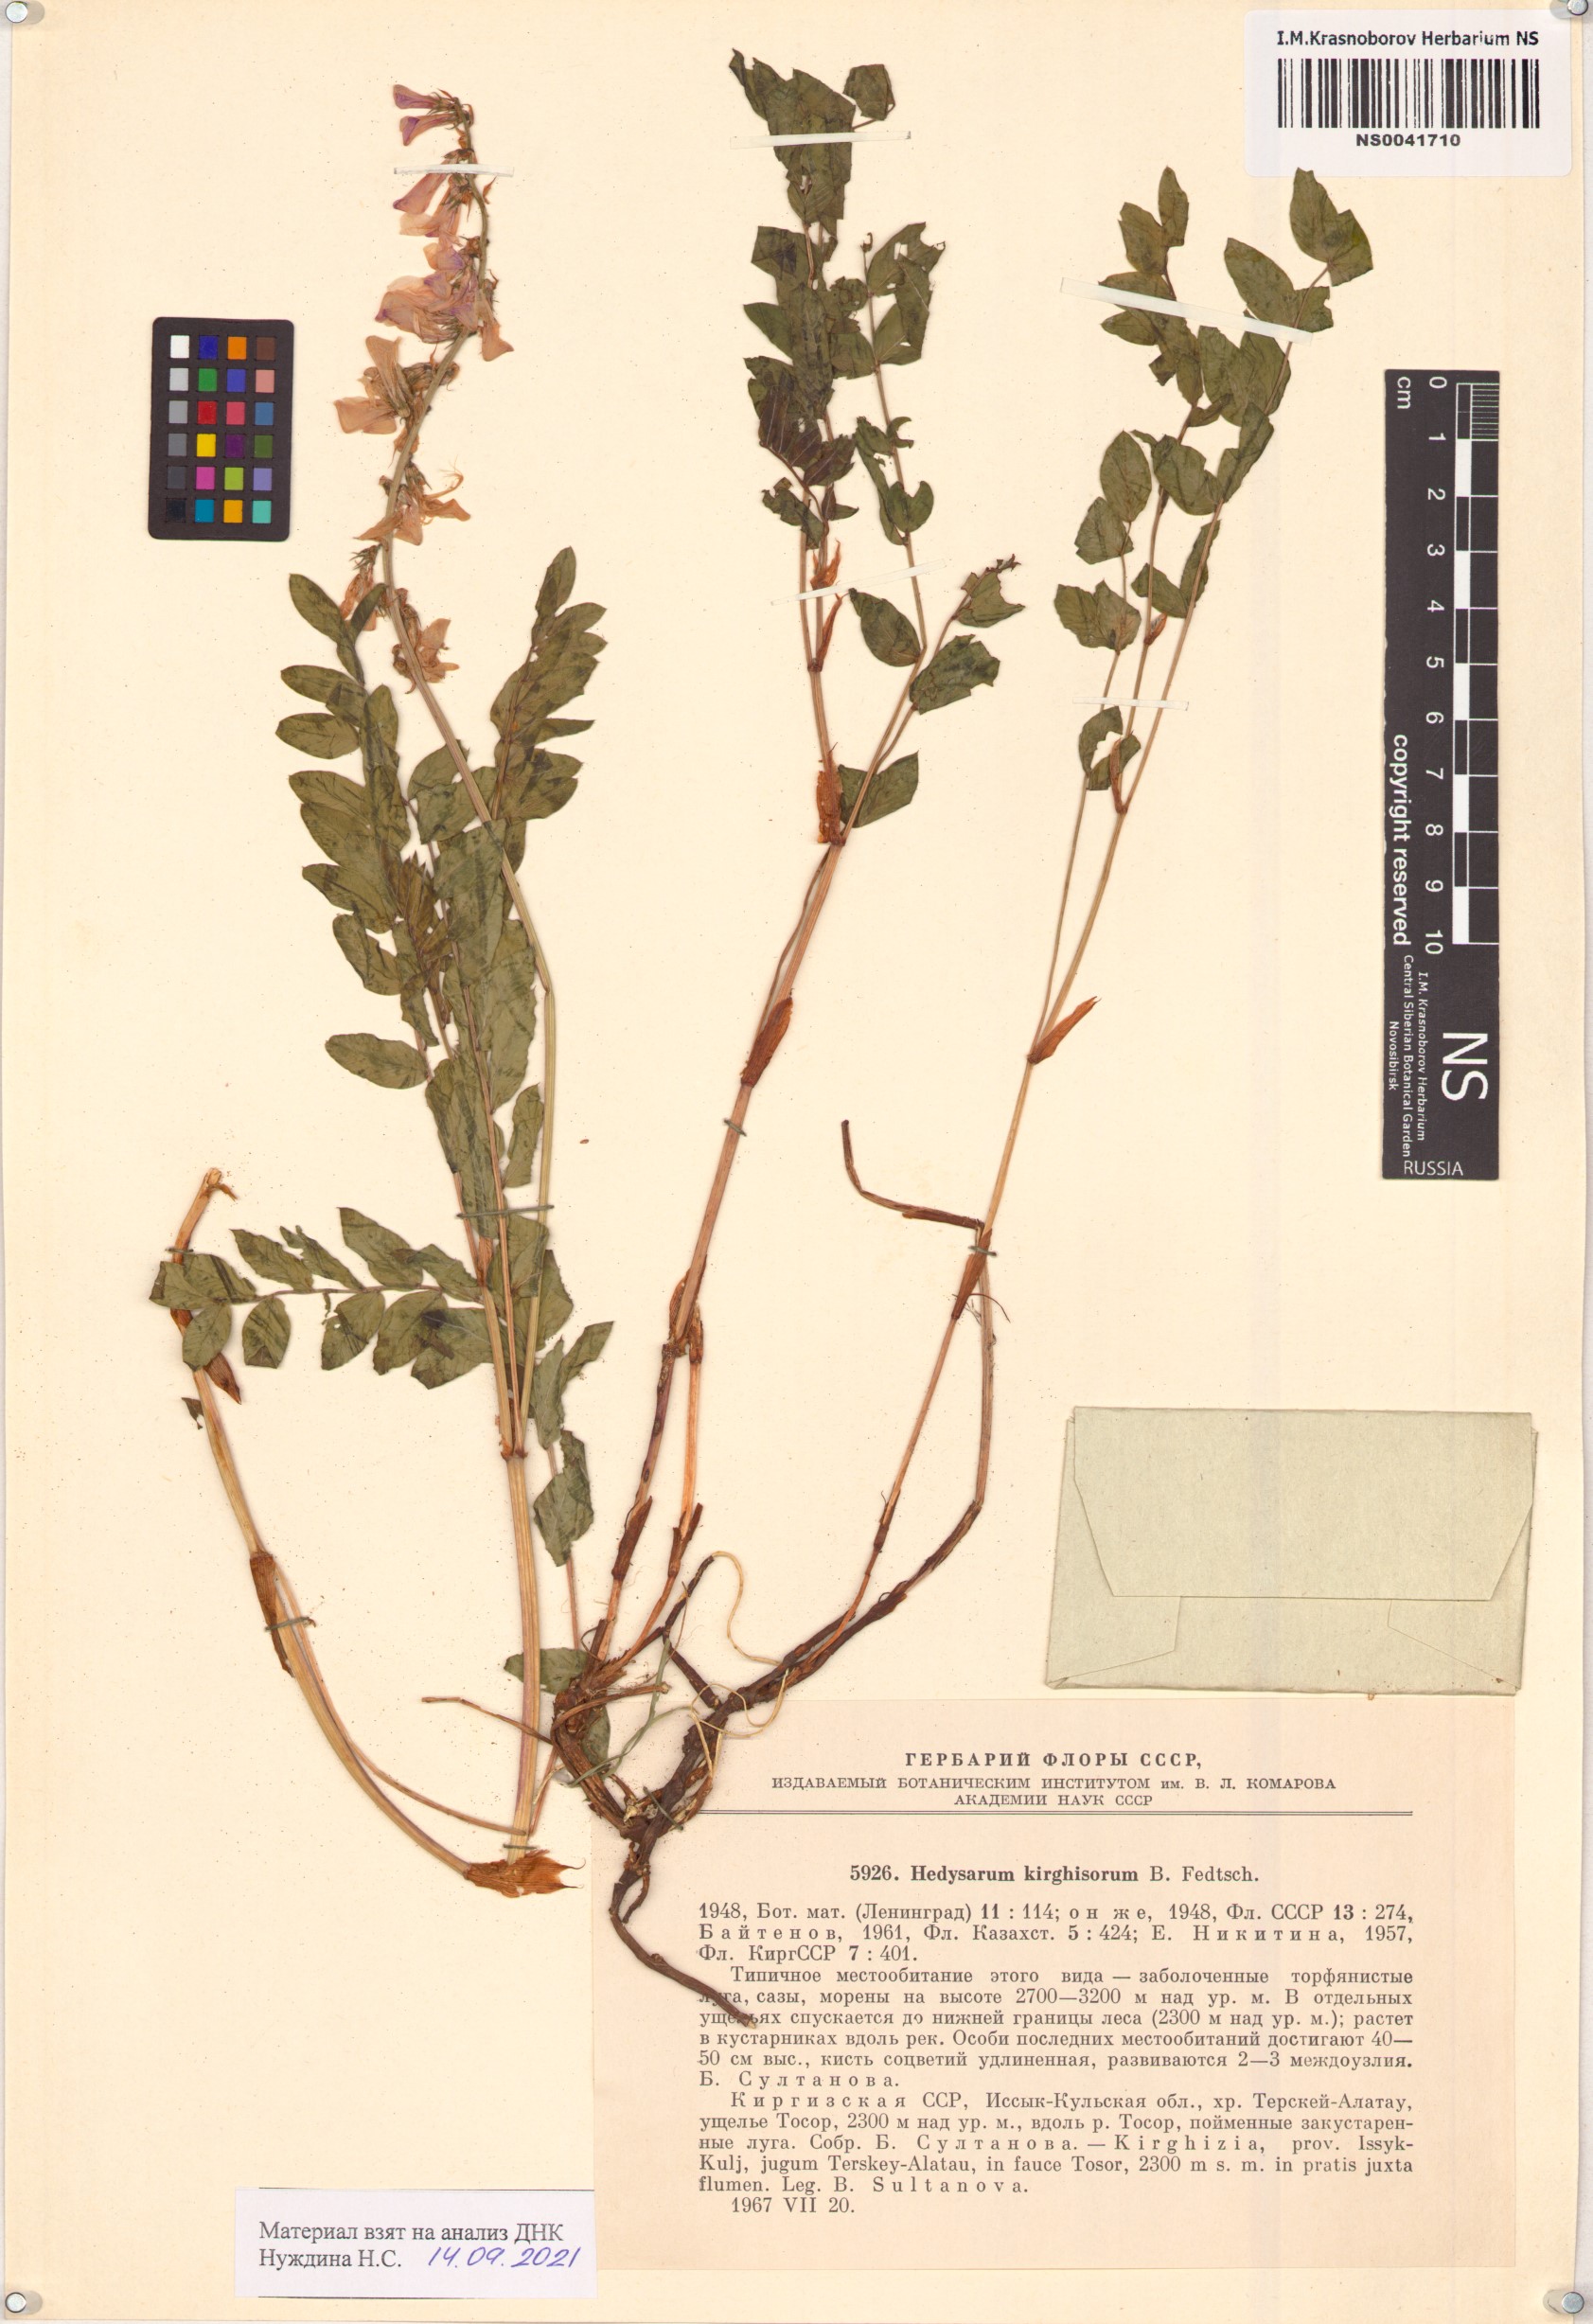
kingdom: Plantae
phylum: Tracheophyta
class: Magnoliopsida
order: Fabales
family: Fabaceae
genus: Hedysarum
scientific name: Hedysarum kirghisorum
